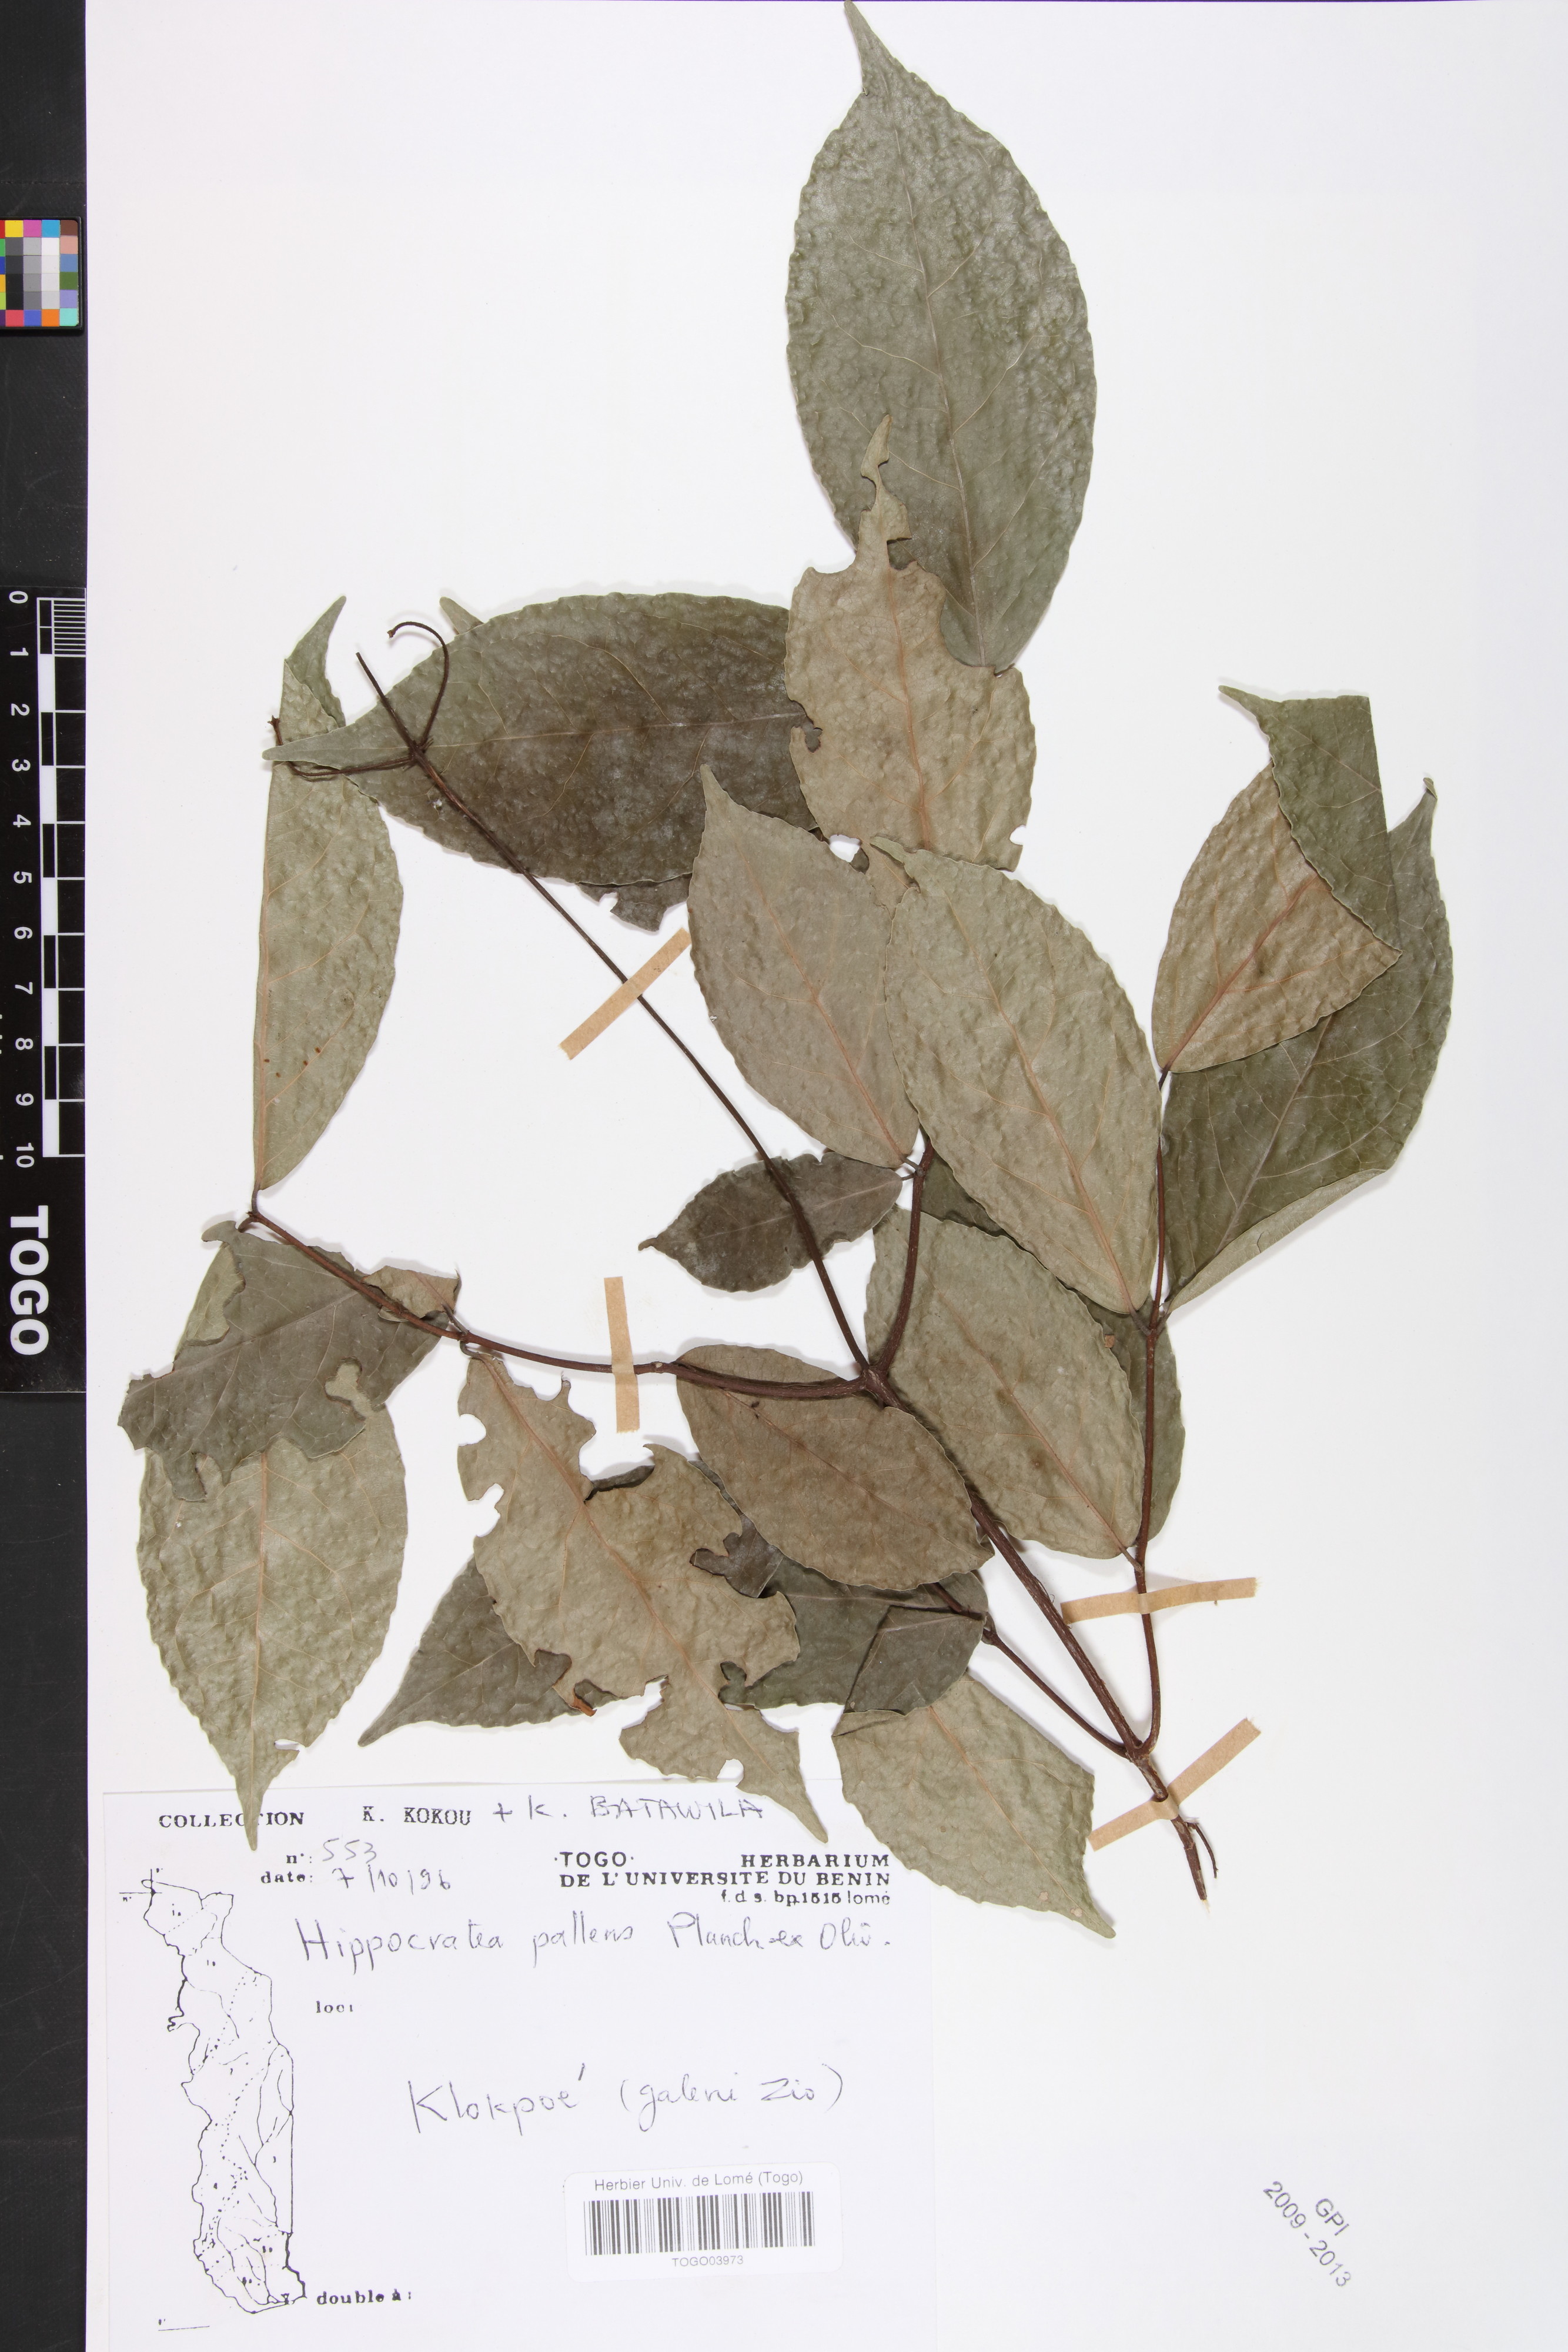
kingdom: Plantae
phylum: Tracheophyta
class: Magnoliopsida
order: Celastrales
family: Celastraceae
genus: Apodostigma
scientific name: Apodostigma pallens
